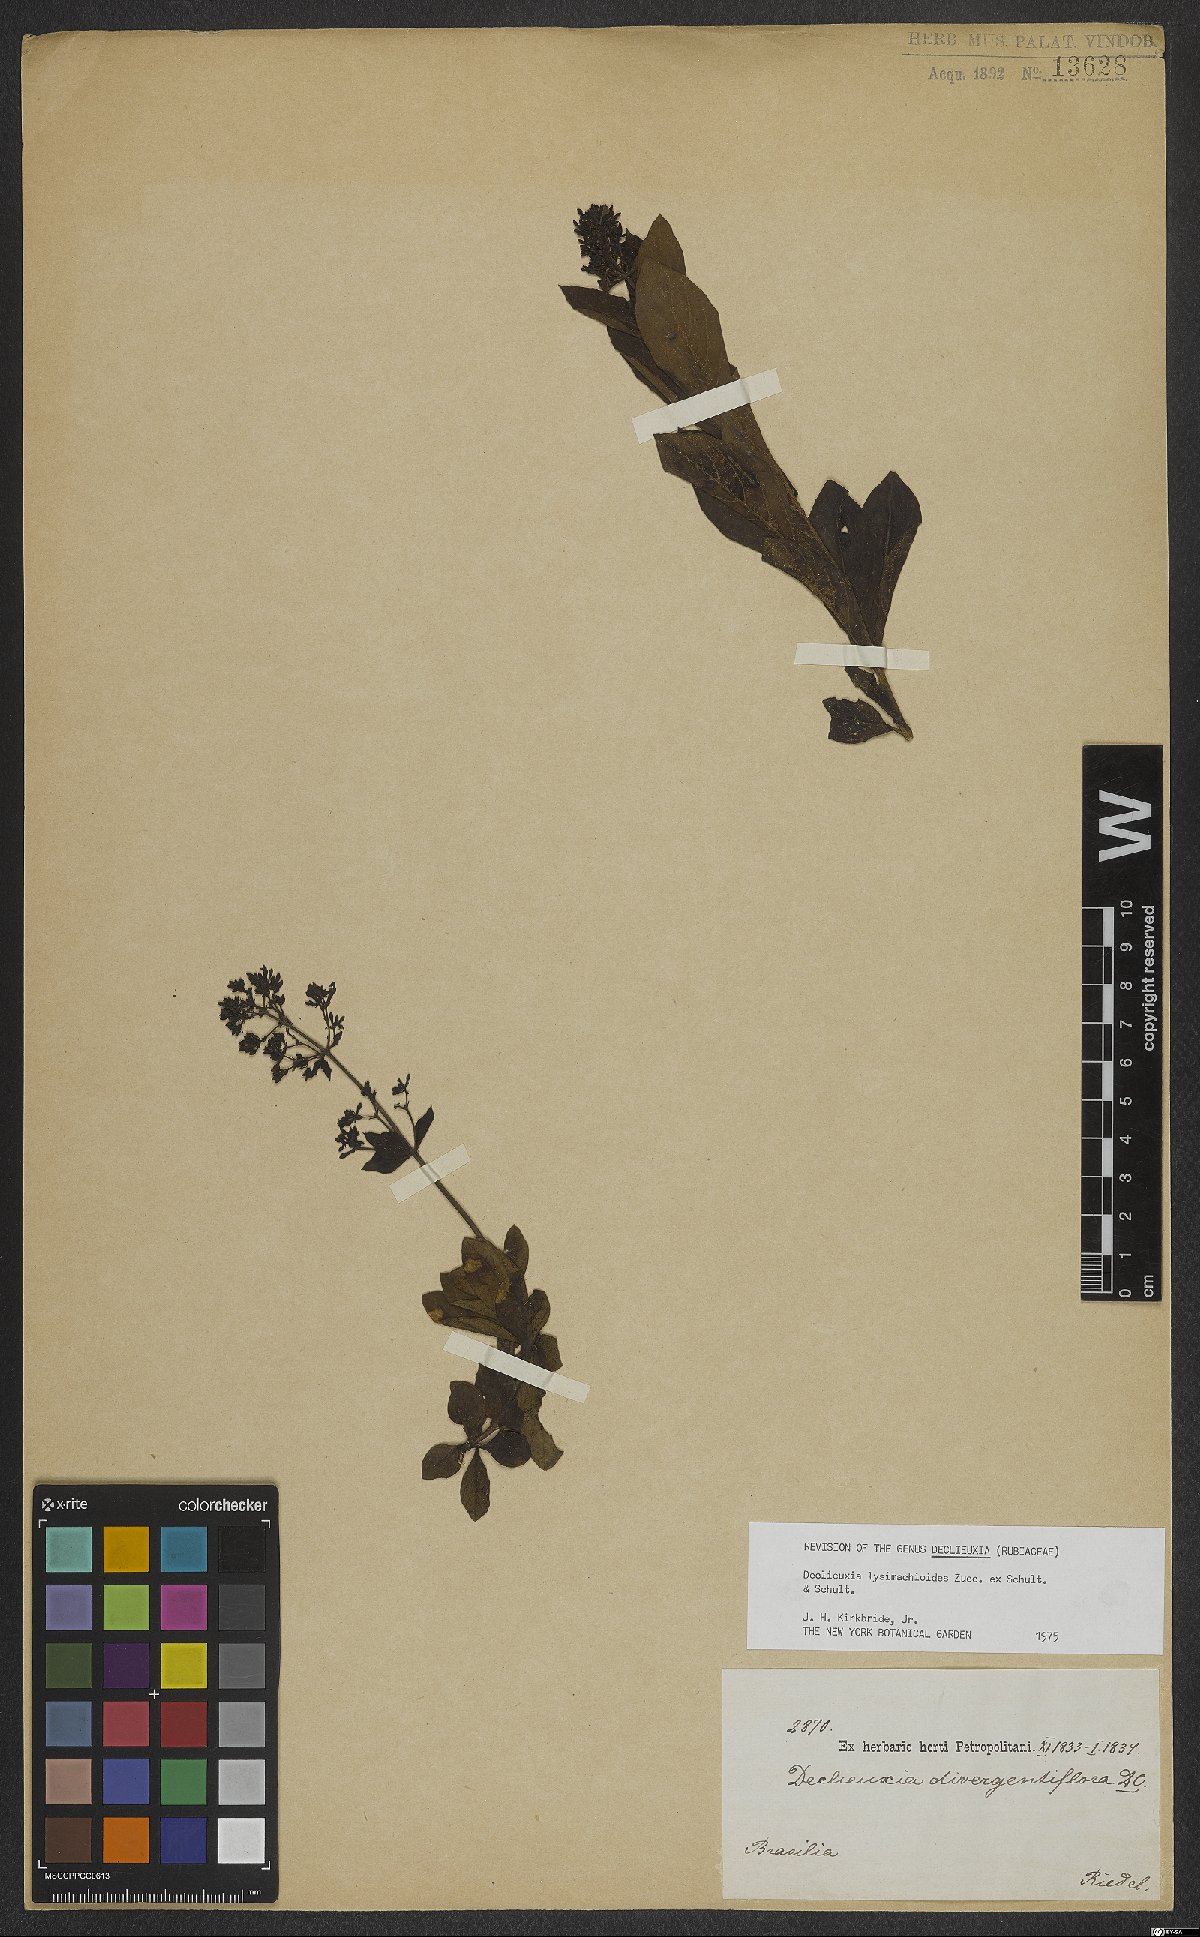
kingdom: Plantae
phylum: Tracheophyta
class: Magnoliopsida
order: Gentianales
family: Rubiaceae
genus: Declieuxia
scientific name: Declieuxia lysimachioides
